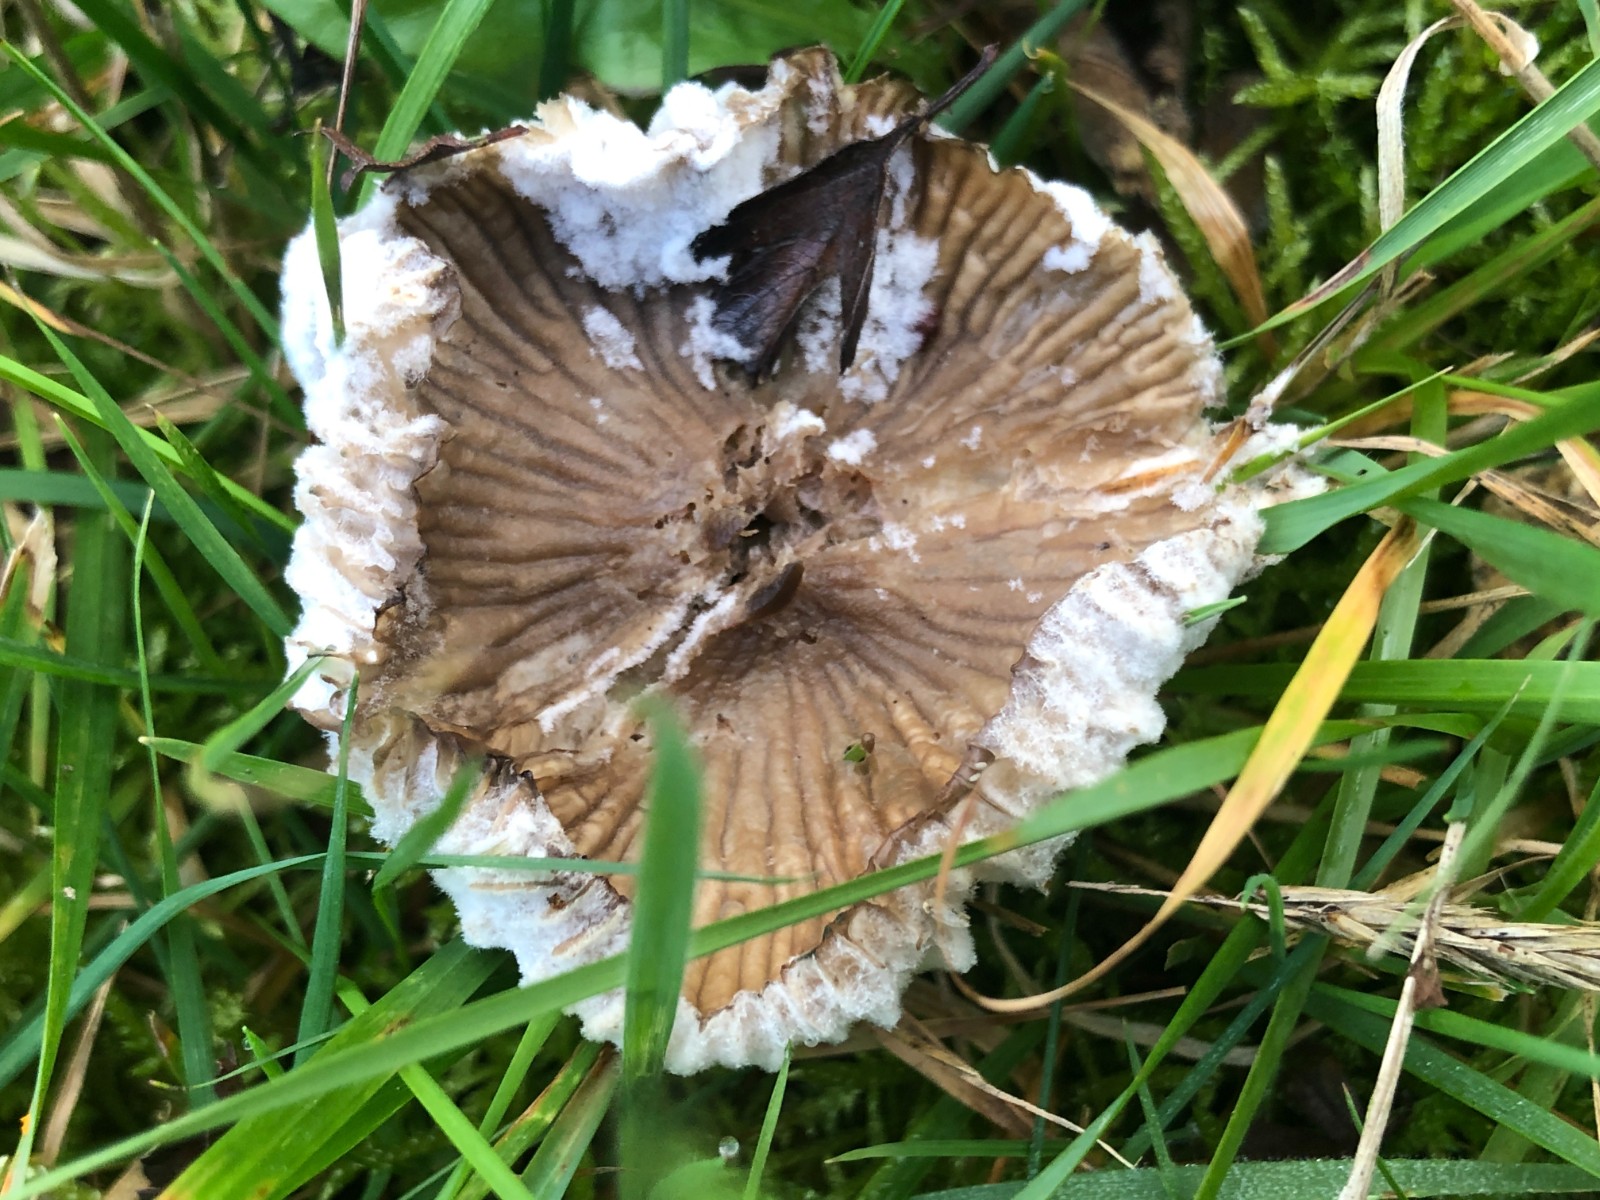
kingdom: Fungi
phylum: Basidiomycota
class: Agaricomycetes
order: Agaricales
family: Hygrophoraceae
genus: Gliophorus
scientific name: Gliophorus irrigatus
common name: slimet vokshat
